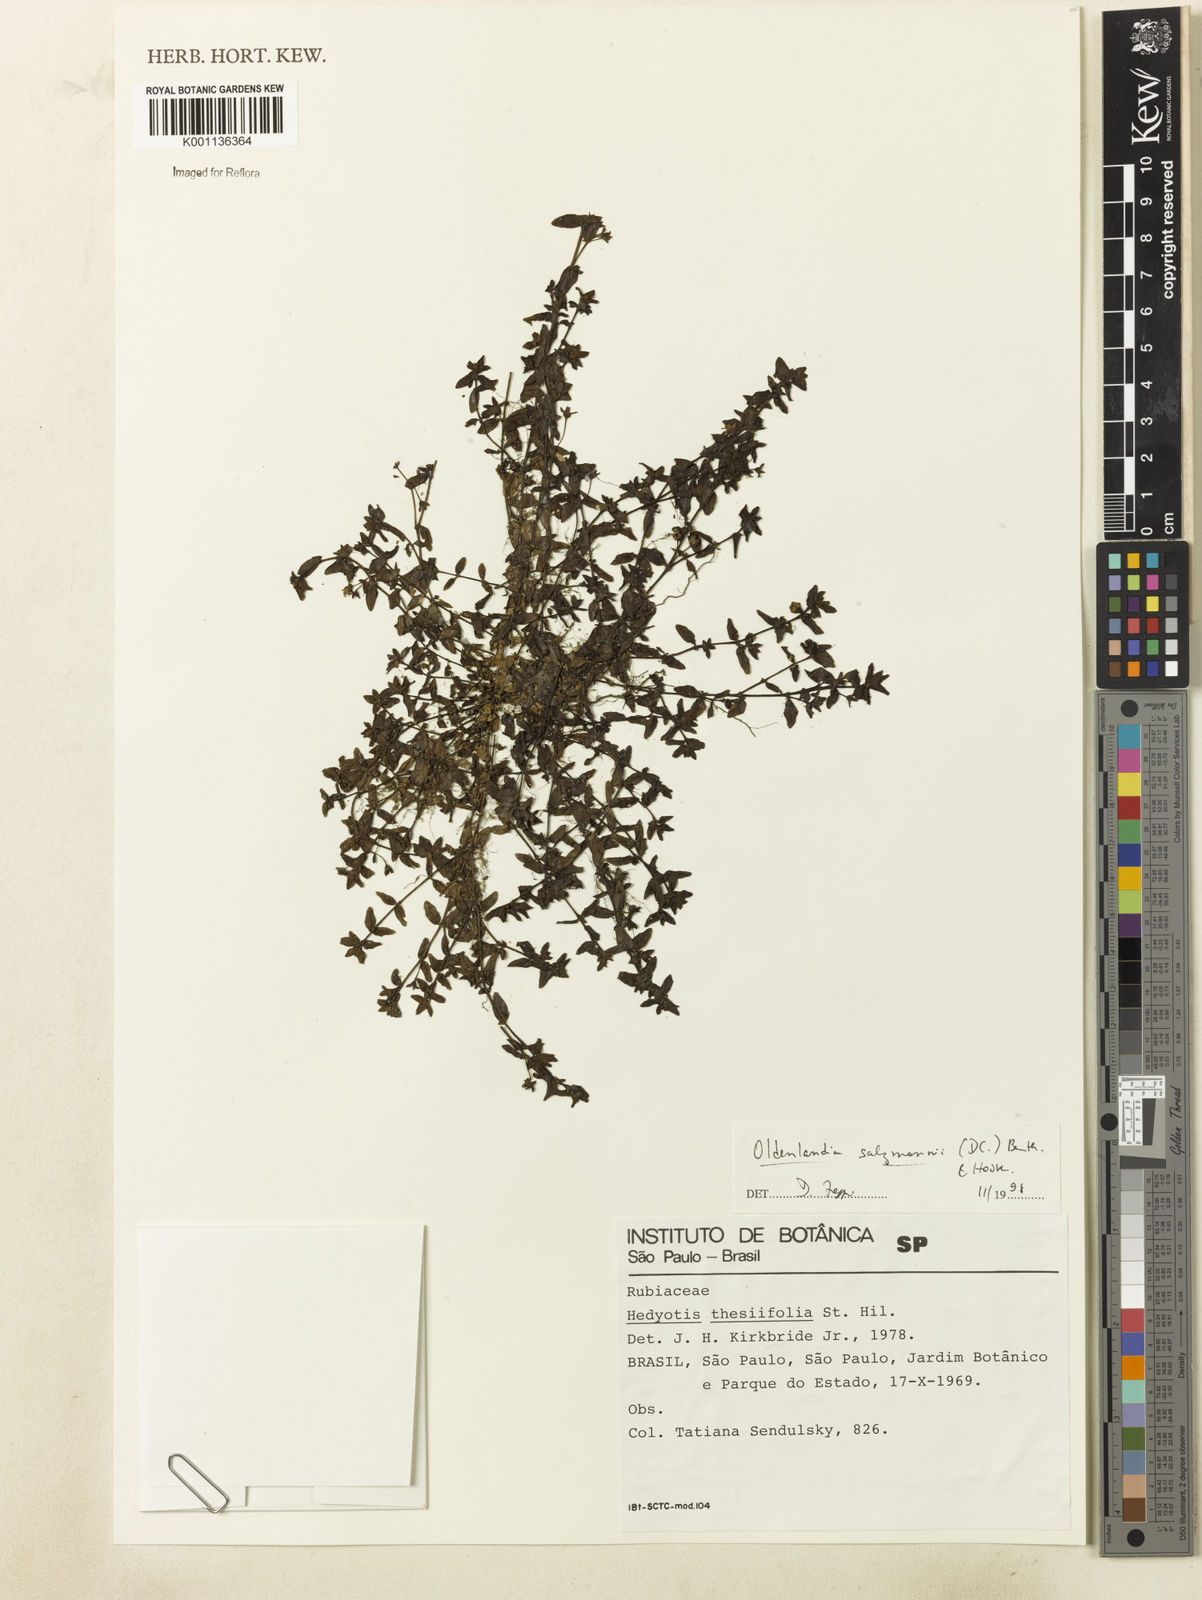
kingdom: Plantae
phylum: Tracheophyta
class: Magnoliopsida
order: Gentianales
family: Rubiaceae
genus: Oldenlandia
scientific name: Oldenlandia salzmannii
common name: Salzmann's mille graines
